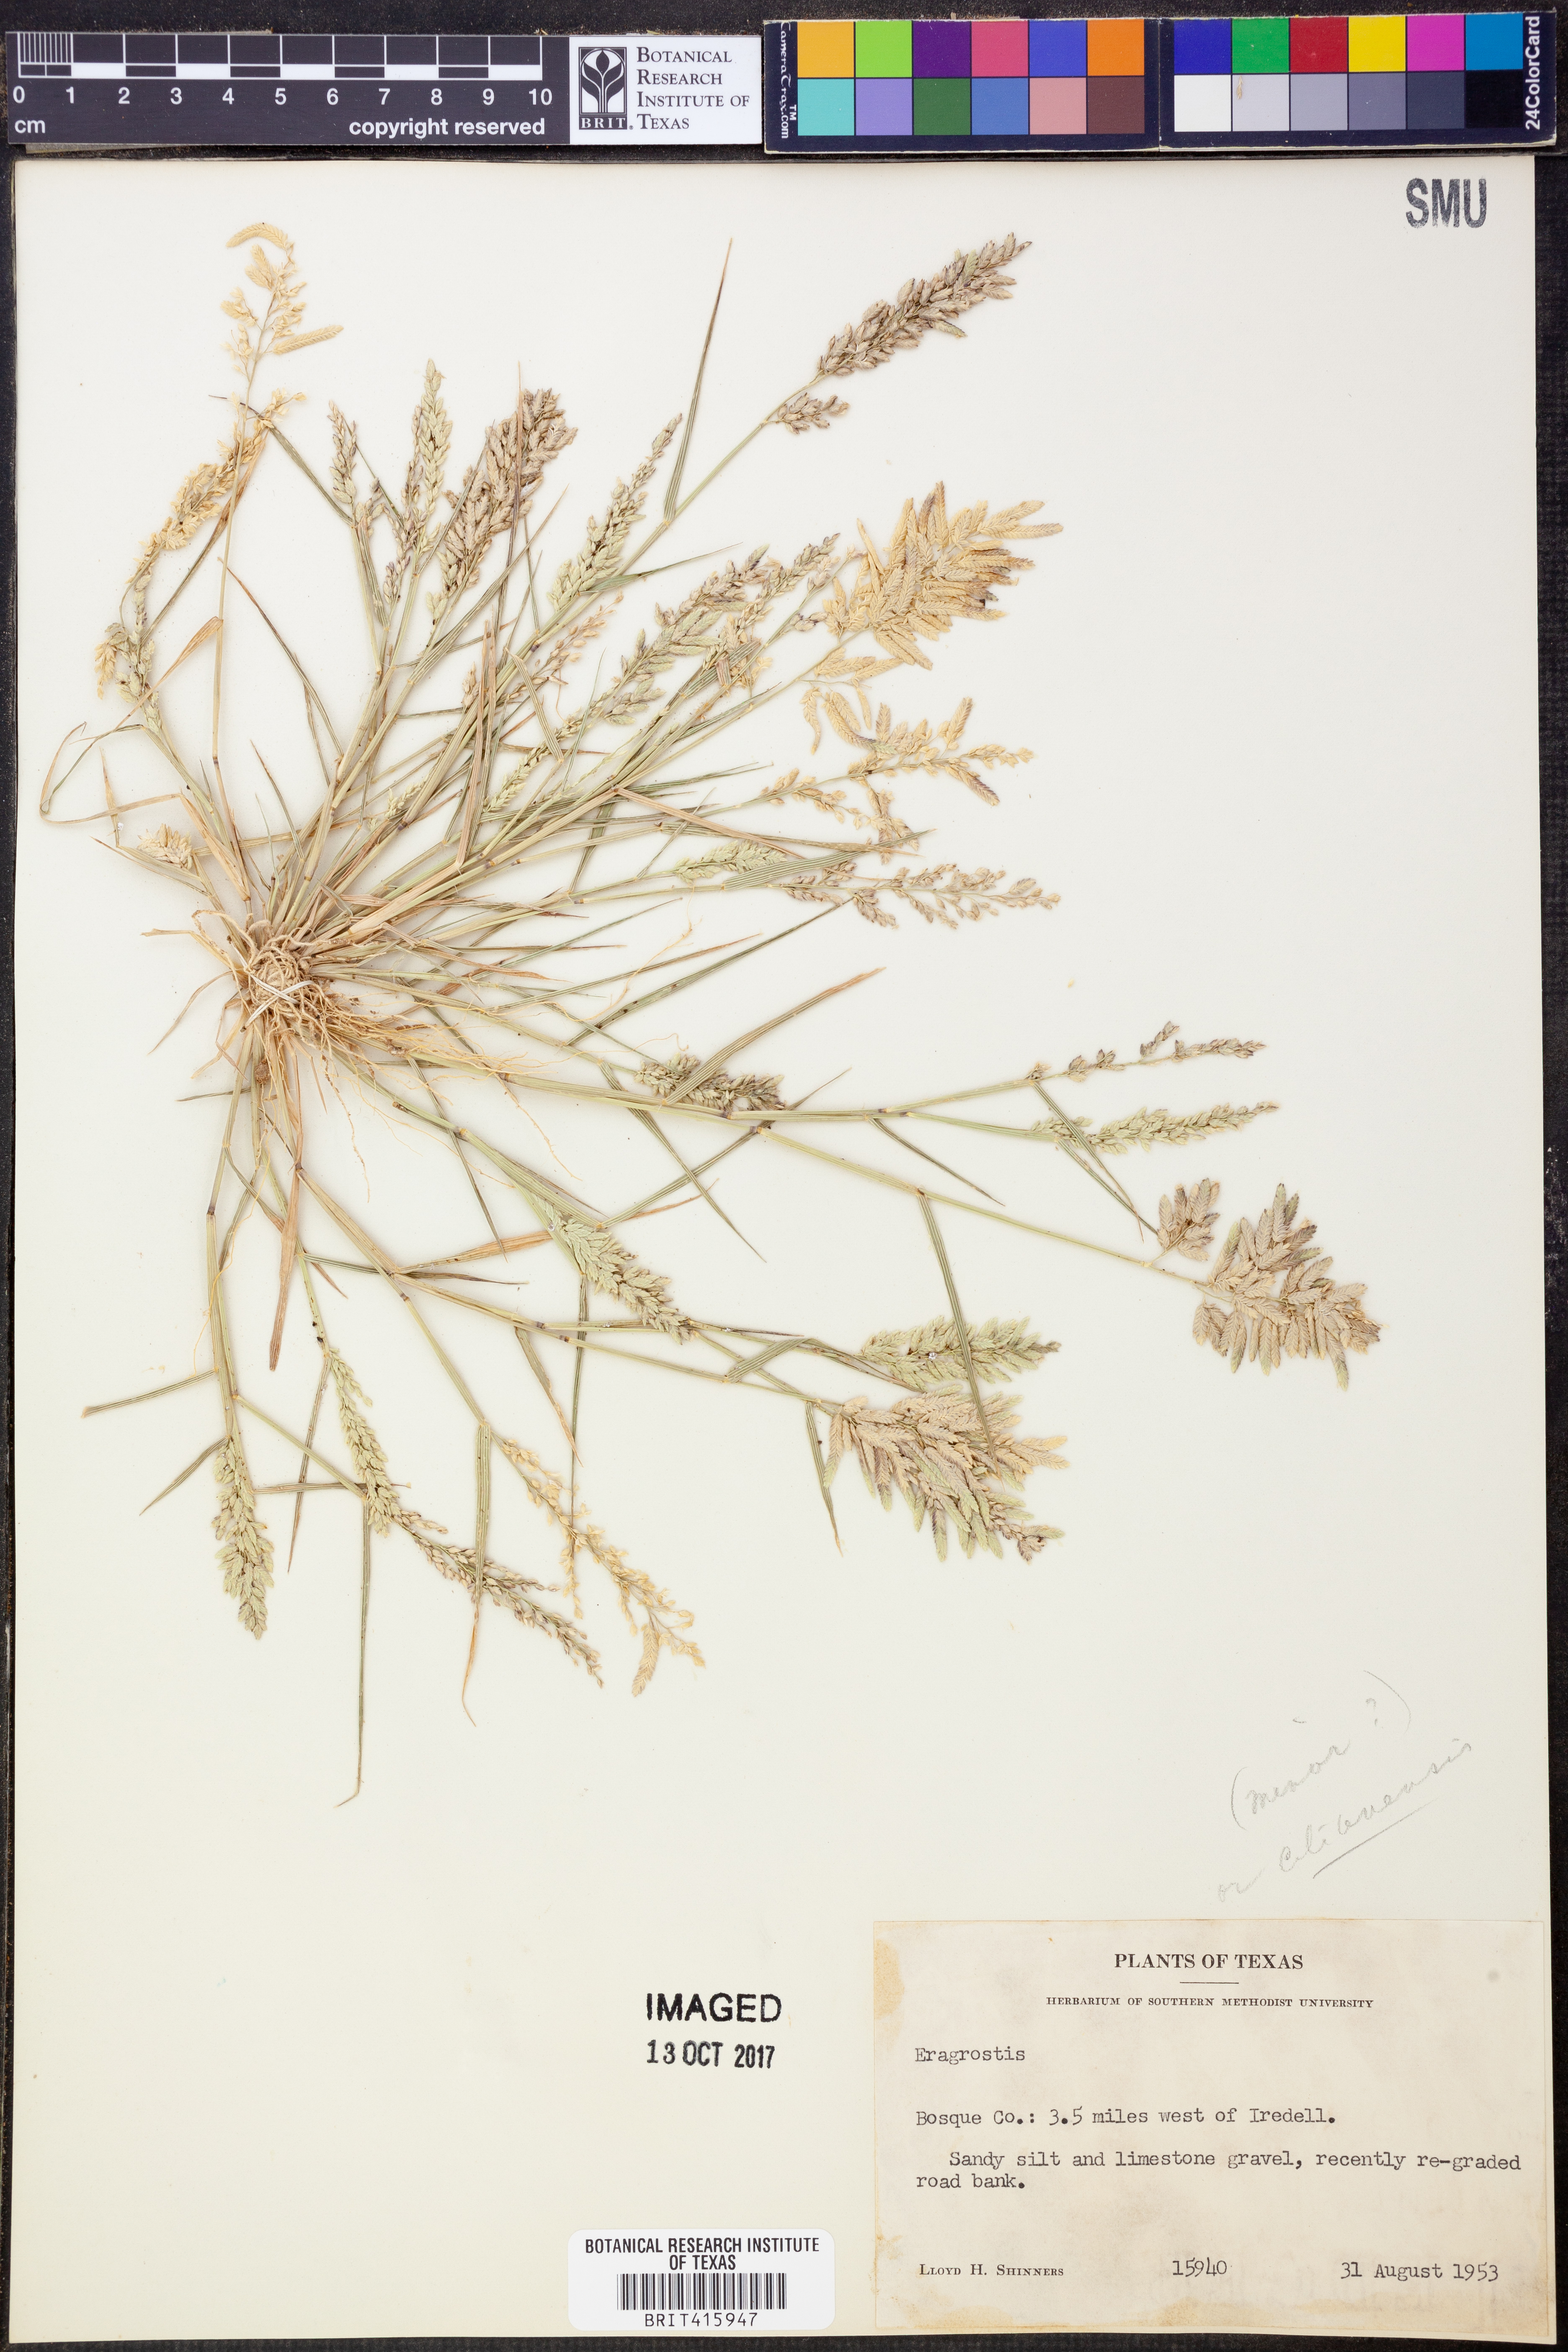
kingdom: Plantae
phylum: Tracheophyta
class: Liliopsida
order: Poales
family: Poaceae
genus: Eragrostis
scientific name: Eragrostis cilianensis
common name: Stinkgrass
